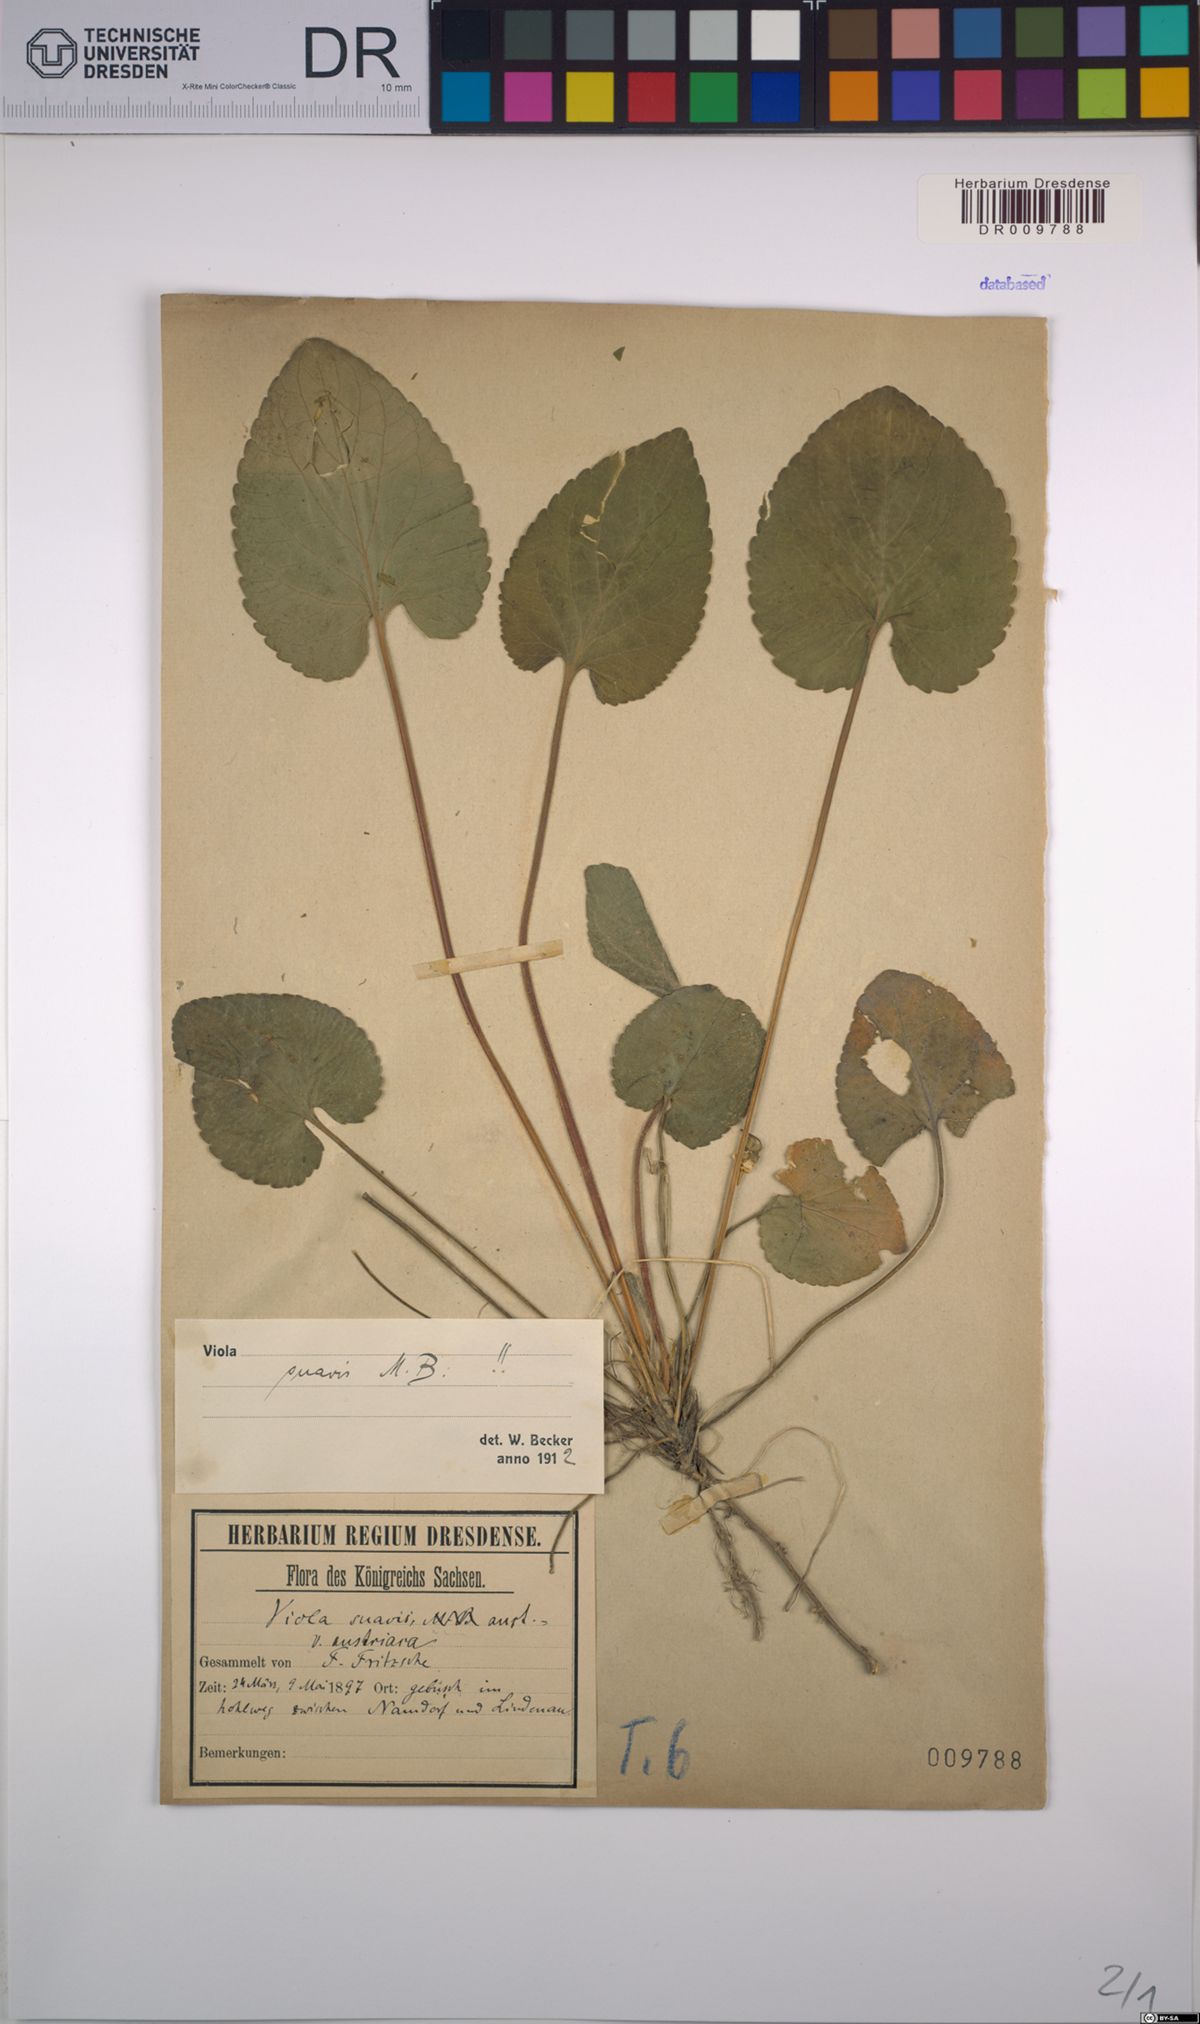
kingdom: Plantae
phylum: Tracheophyta
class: Magnoliopsida
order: Malpighiales
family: Violaceae
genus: Viola
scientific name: Viola suavis
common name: Russian violet
